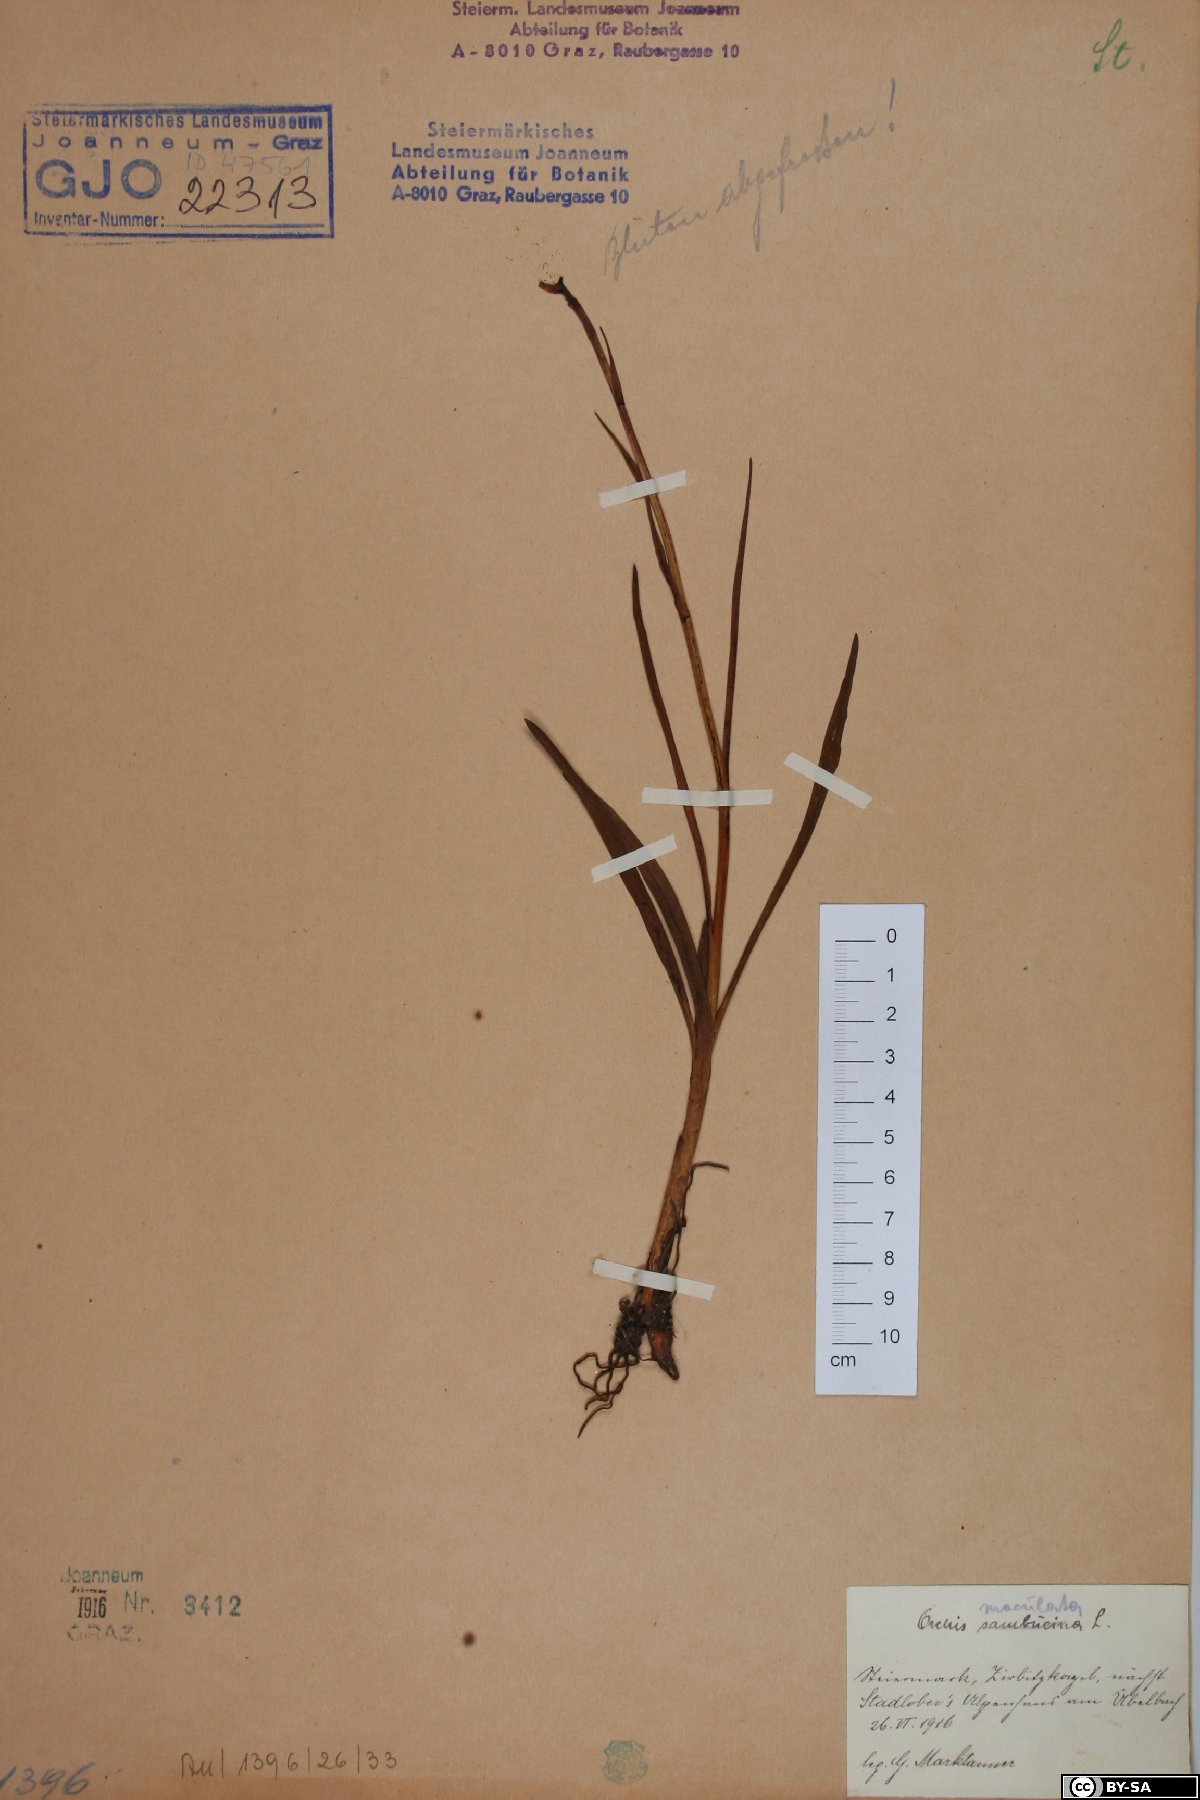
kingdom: Plantae
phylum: Tracheophyta
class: Liliopsida
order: Asparagales
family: Orchidaceae
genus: Dactylorhiza
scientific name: Dactylorhiza sambucina
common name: Elder-flowered orchid
